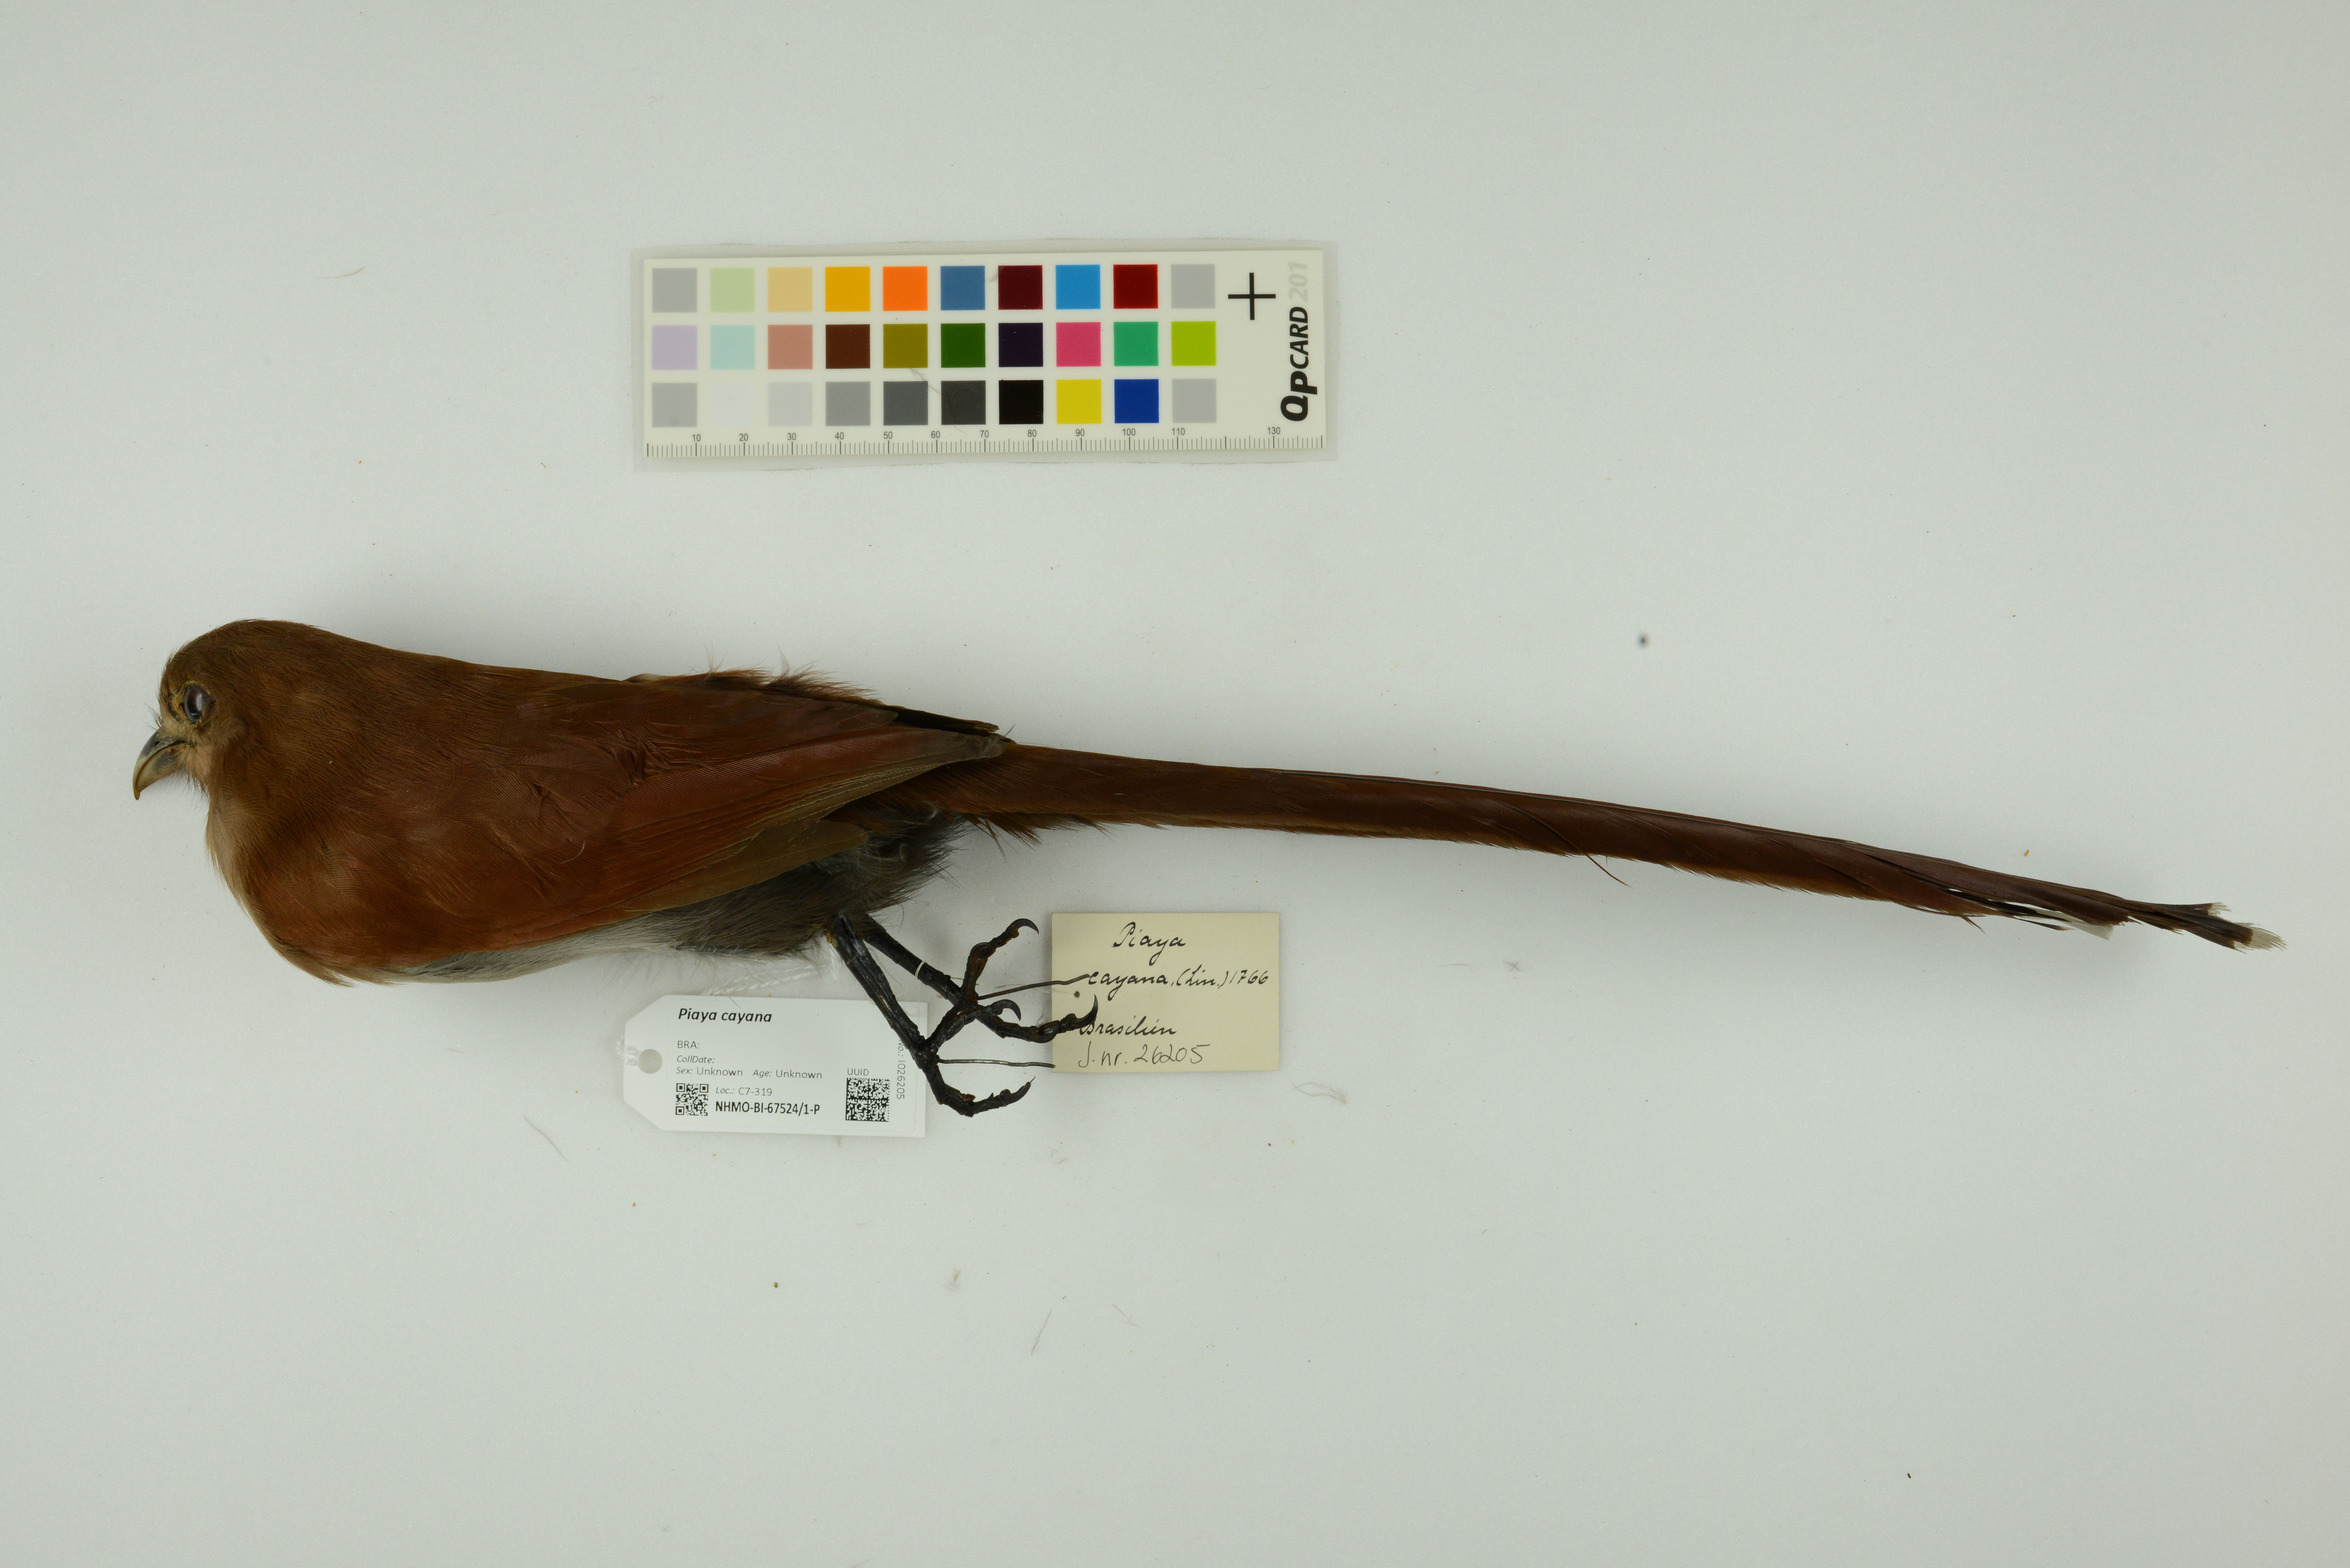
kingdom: Animalia
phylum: Chordata
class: Aves
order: Cuculiformes
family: Cuculidae
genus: Piaya
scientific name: Piaya cayana
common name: Squirrel cuckoo
